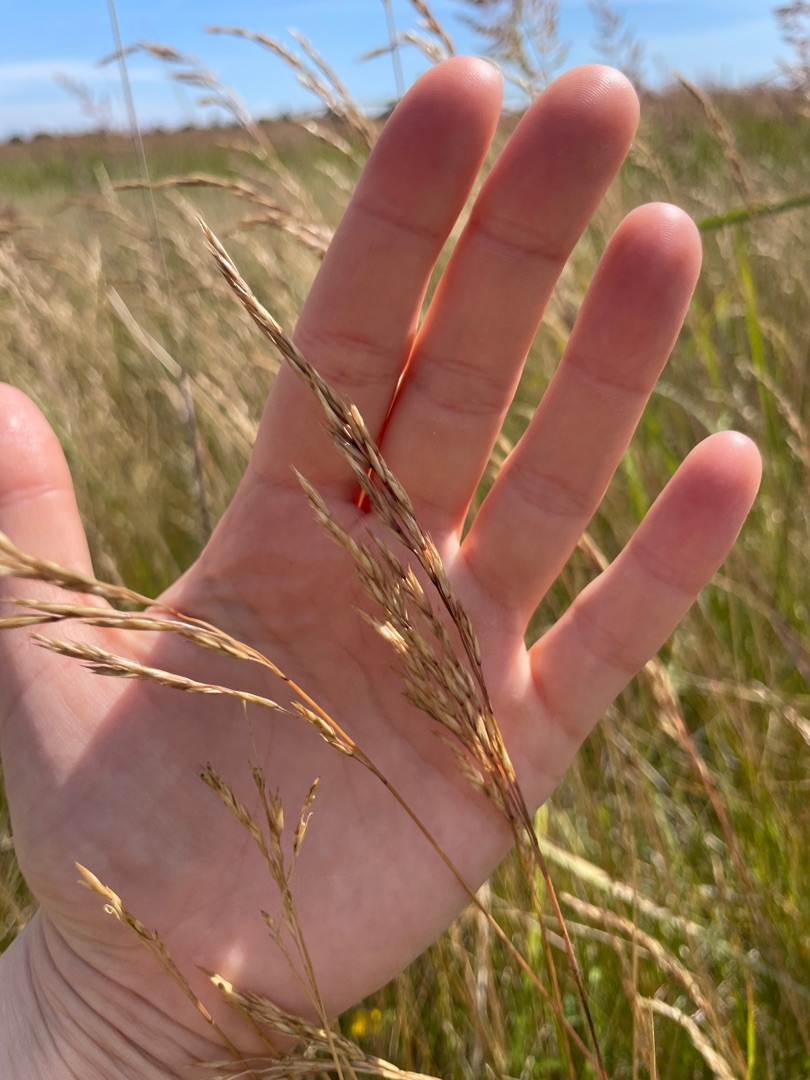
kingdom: Plantae
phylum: Tracheophyta
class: Liliopsida
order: Poales
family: Poaceae
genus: Festuca
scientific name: Festuca rubra
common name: Rød svingel
